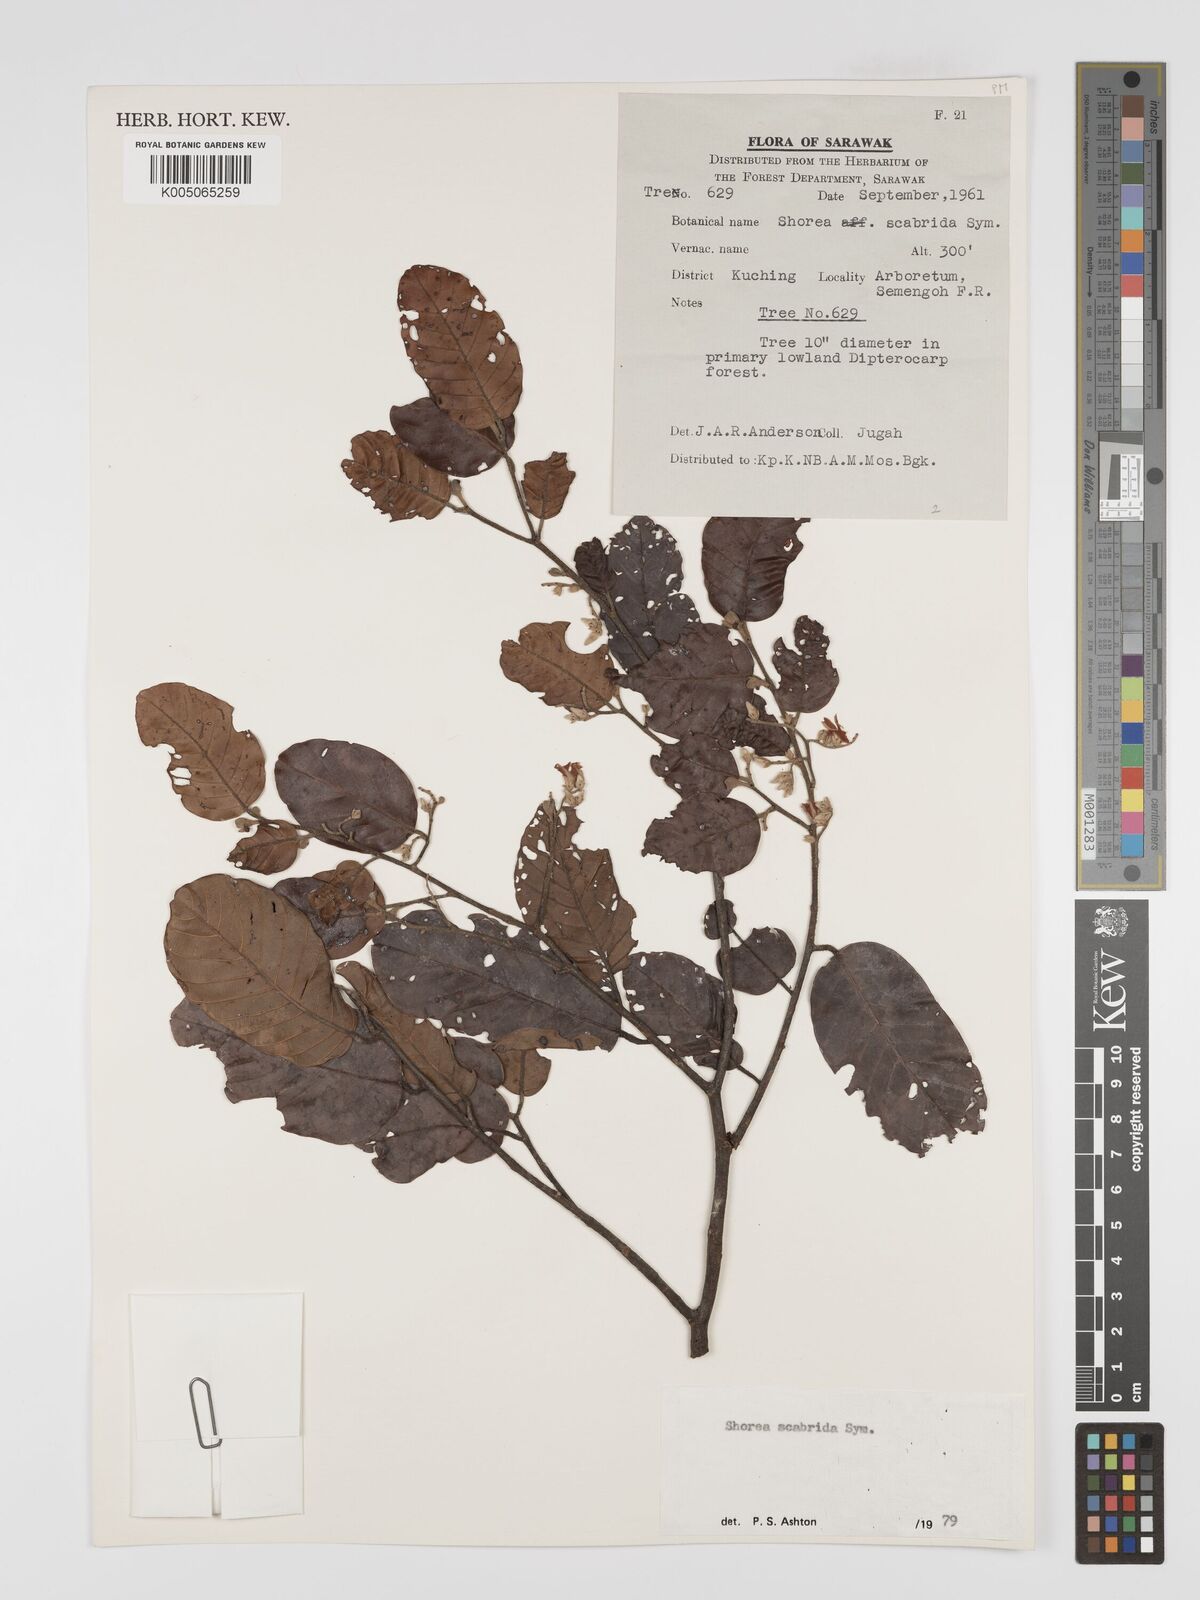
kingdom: Plantae
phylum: Tracheophyta
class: Magnoliopsida
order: Malvales
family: Dipterocarpaceae
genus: Shorea
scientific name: Shorea scabrida
